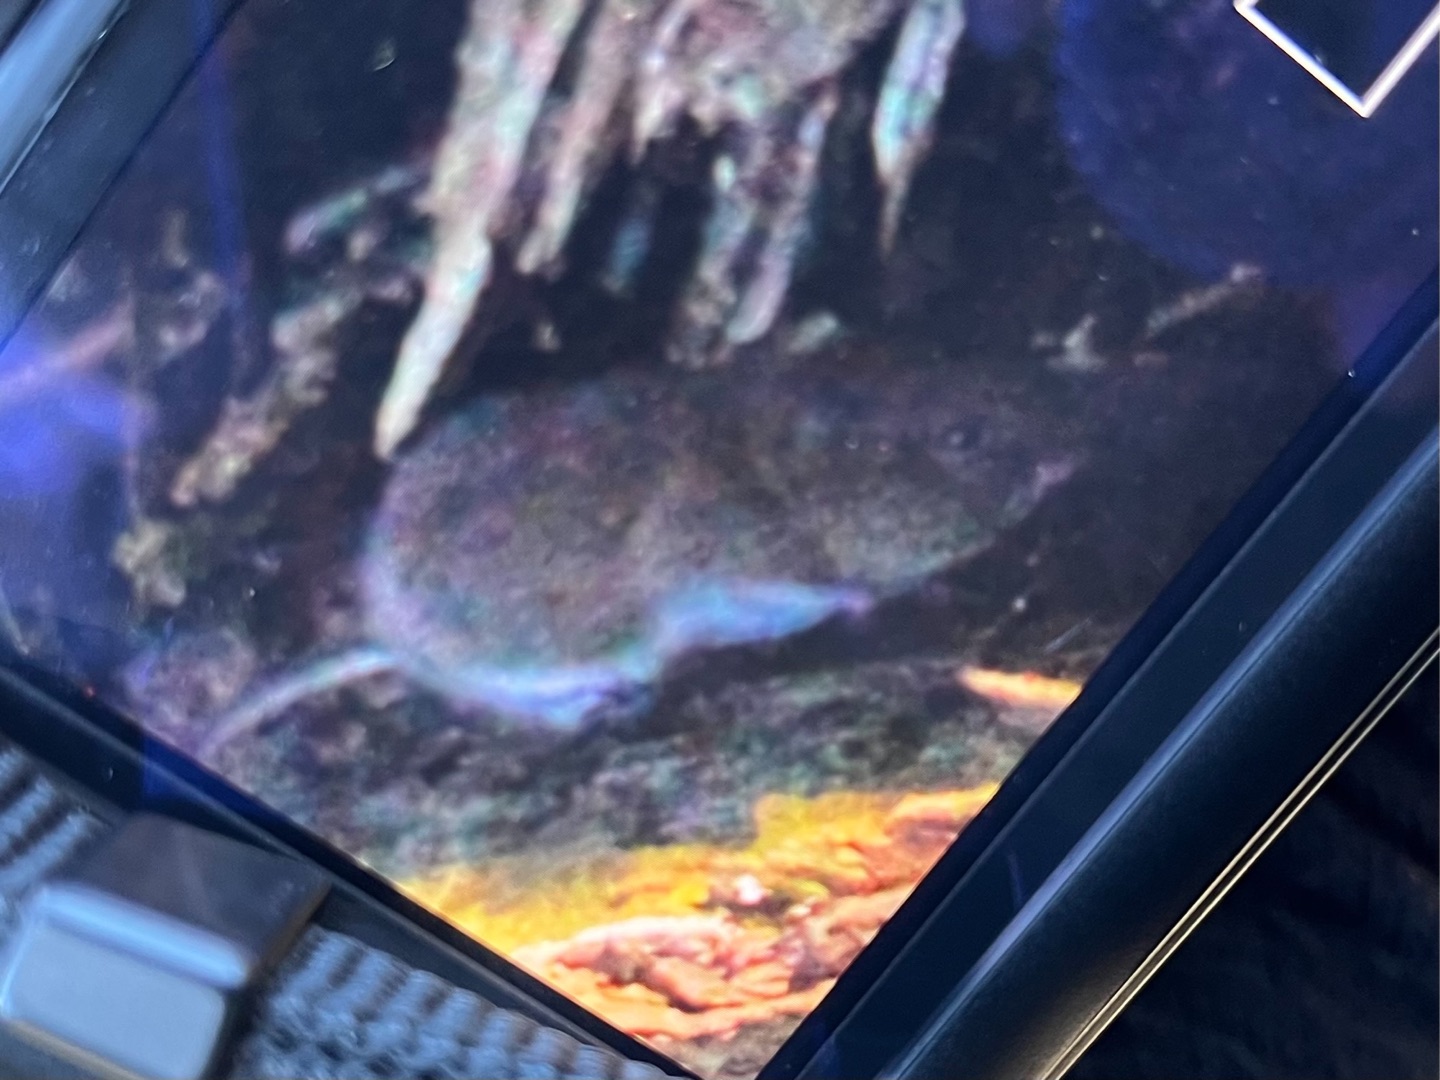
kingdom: Animalia
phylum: Chordata
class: Mammalia
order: Rodentia
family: Cricetidae
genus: Myodes
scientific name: Myodes glareolus
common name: Rødmus
